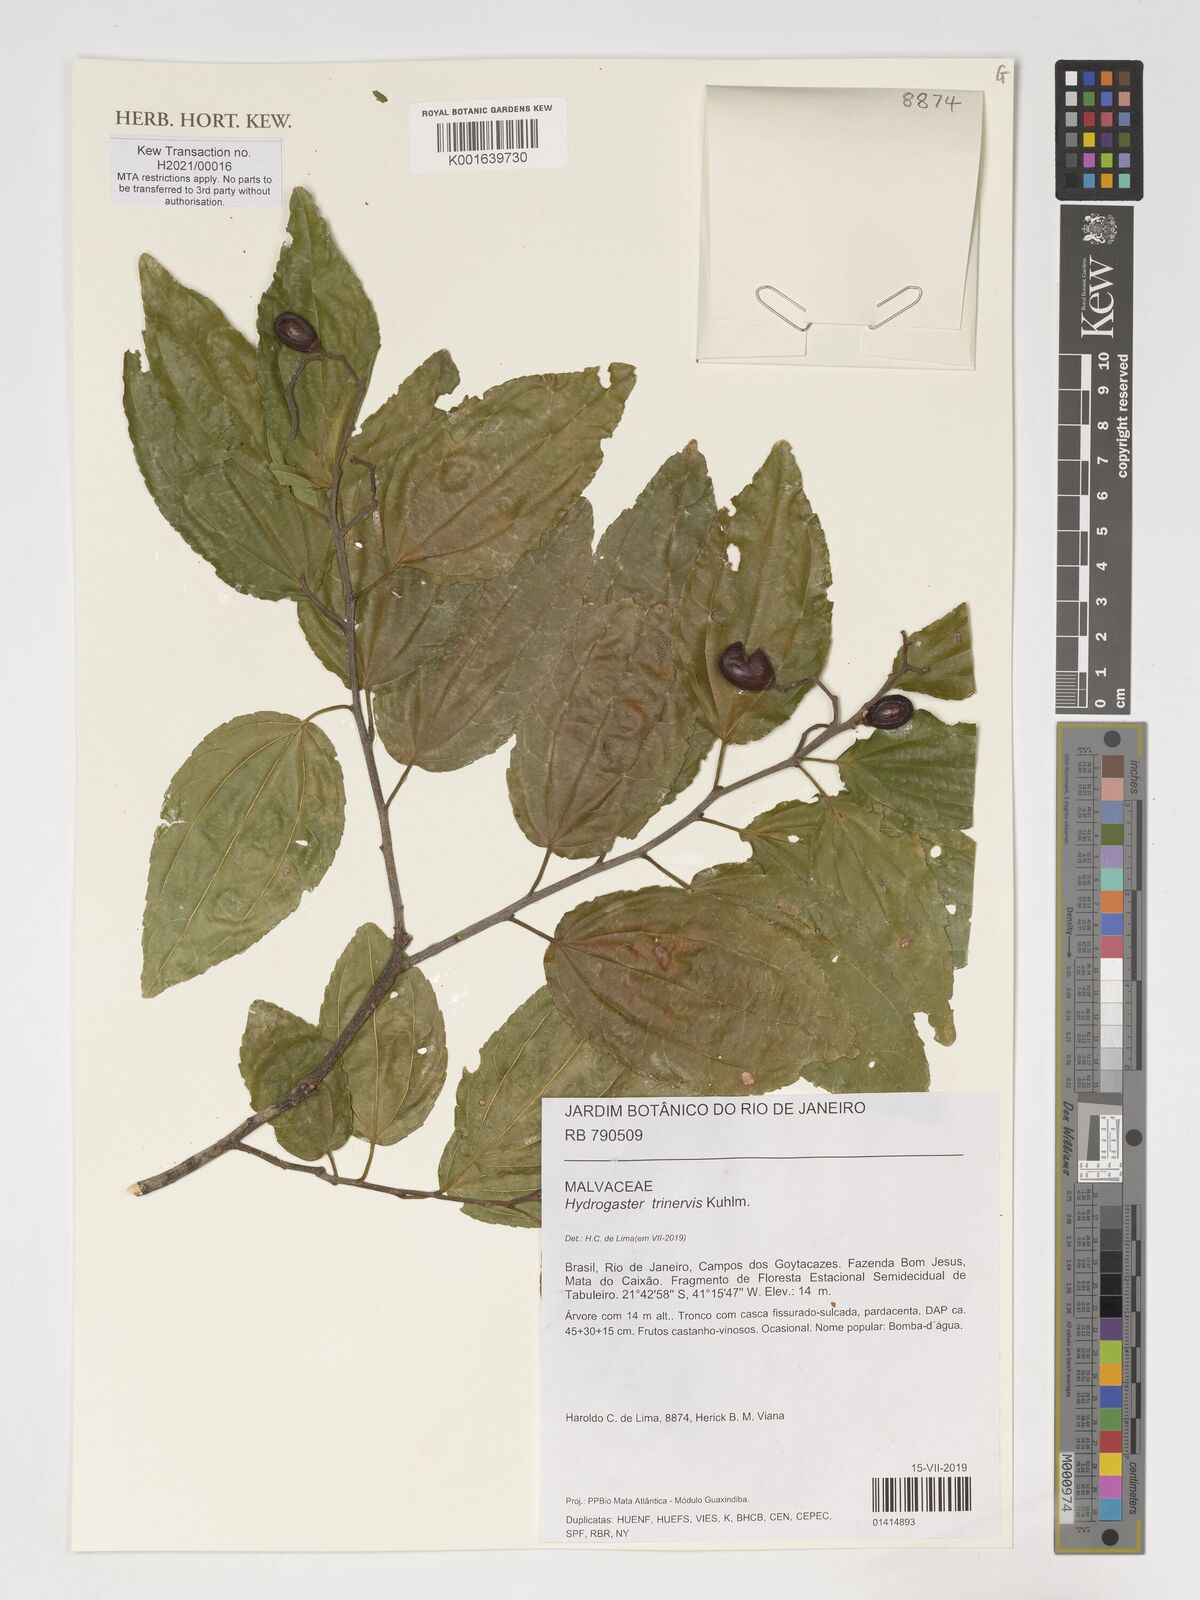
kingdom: Plantae
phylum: Tracheophyta
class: Magnoliopsida
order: Malvales
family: Malvaceae
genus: Hydrogaster
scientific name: Hydrogaster trinervis
